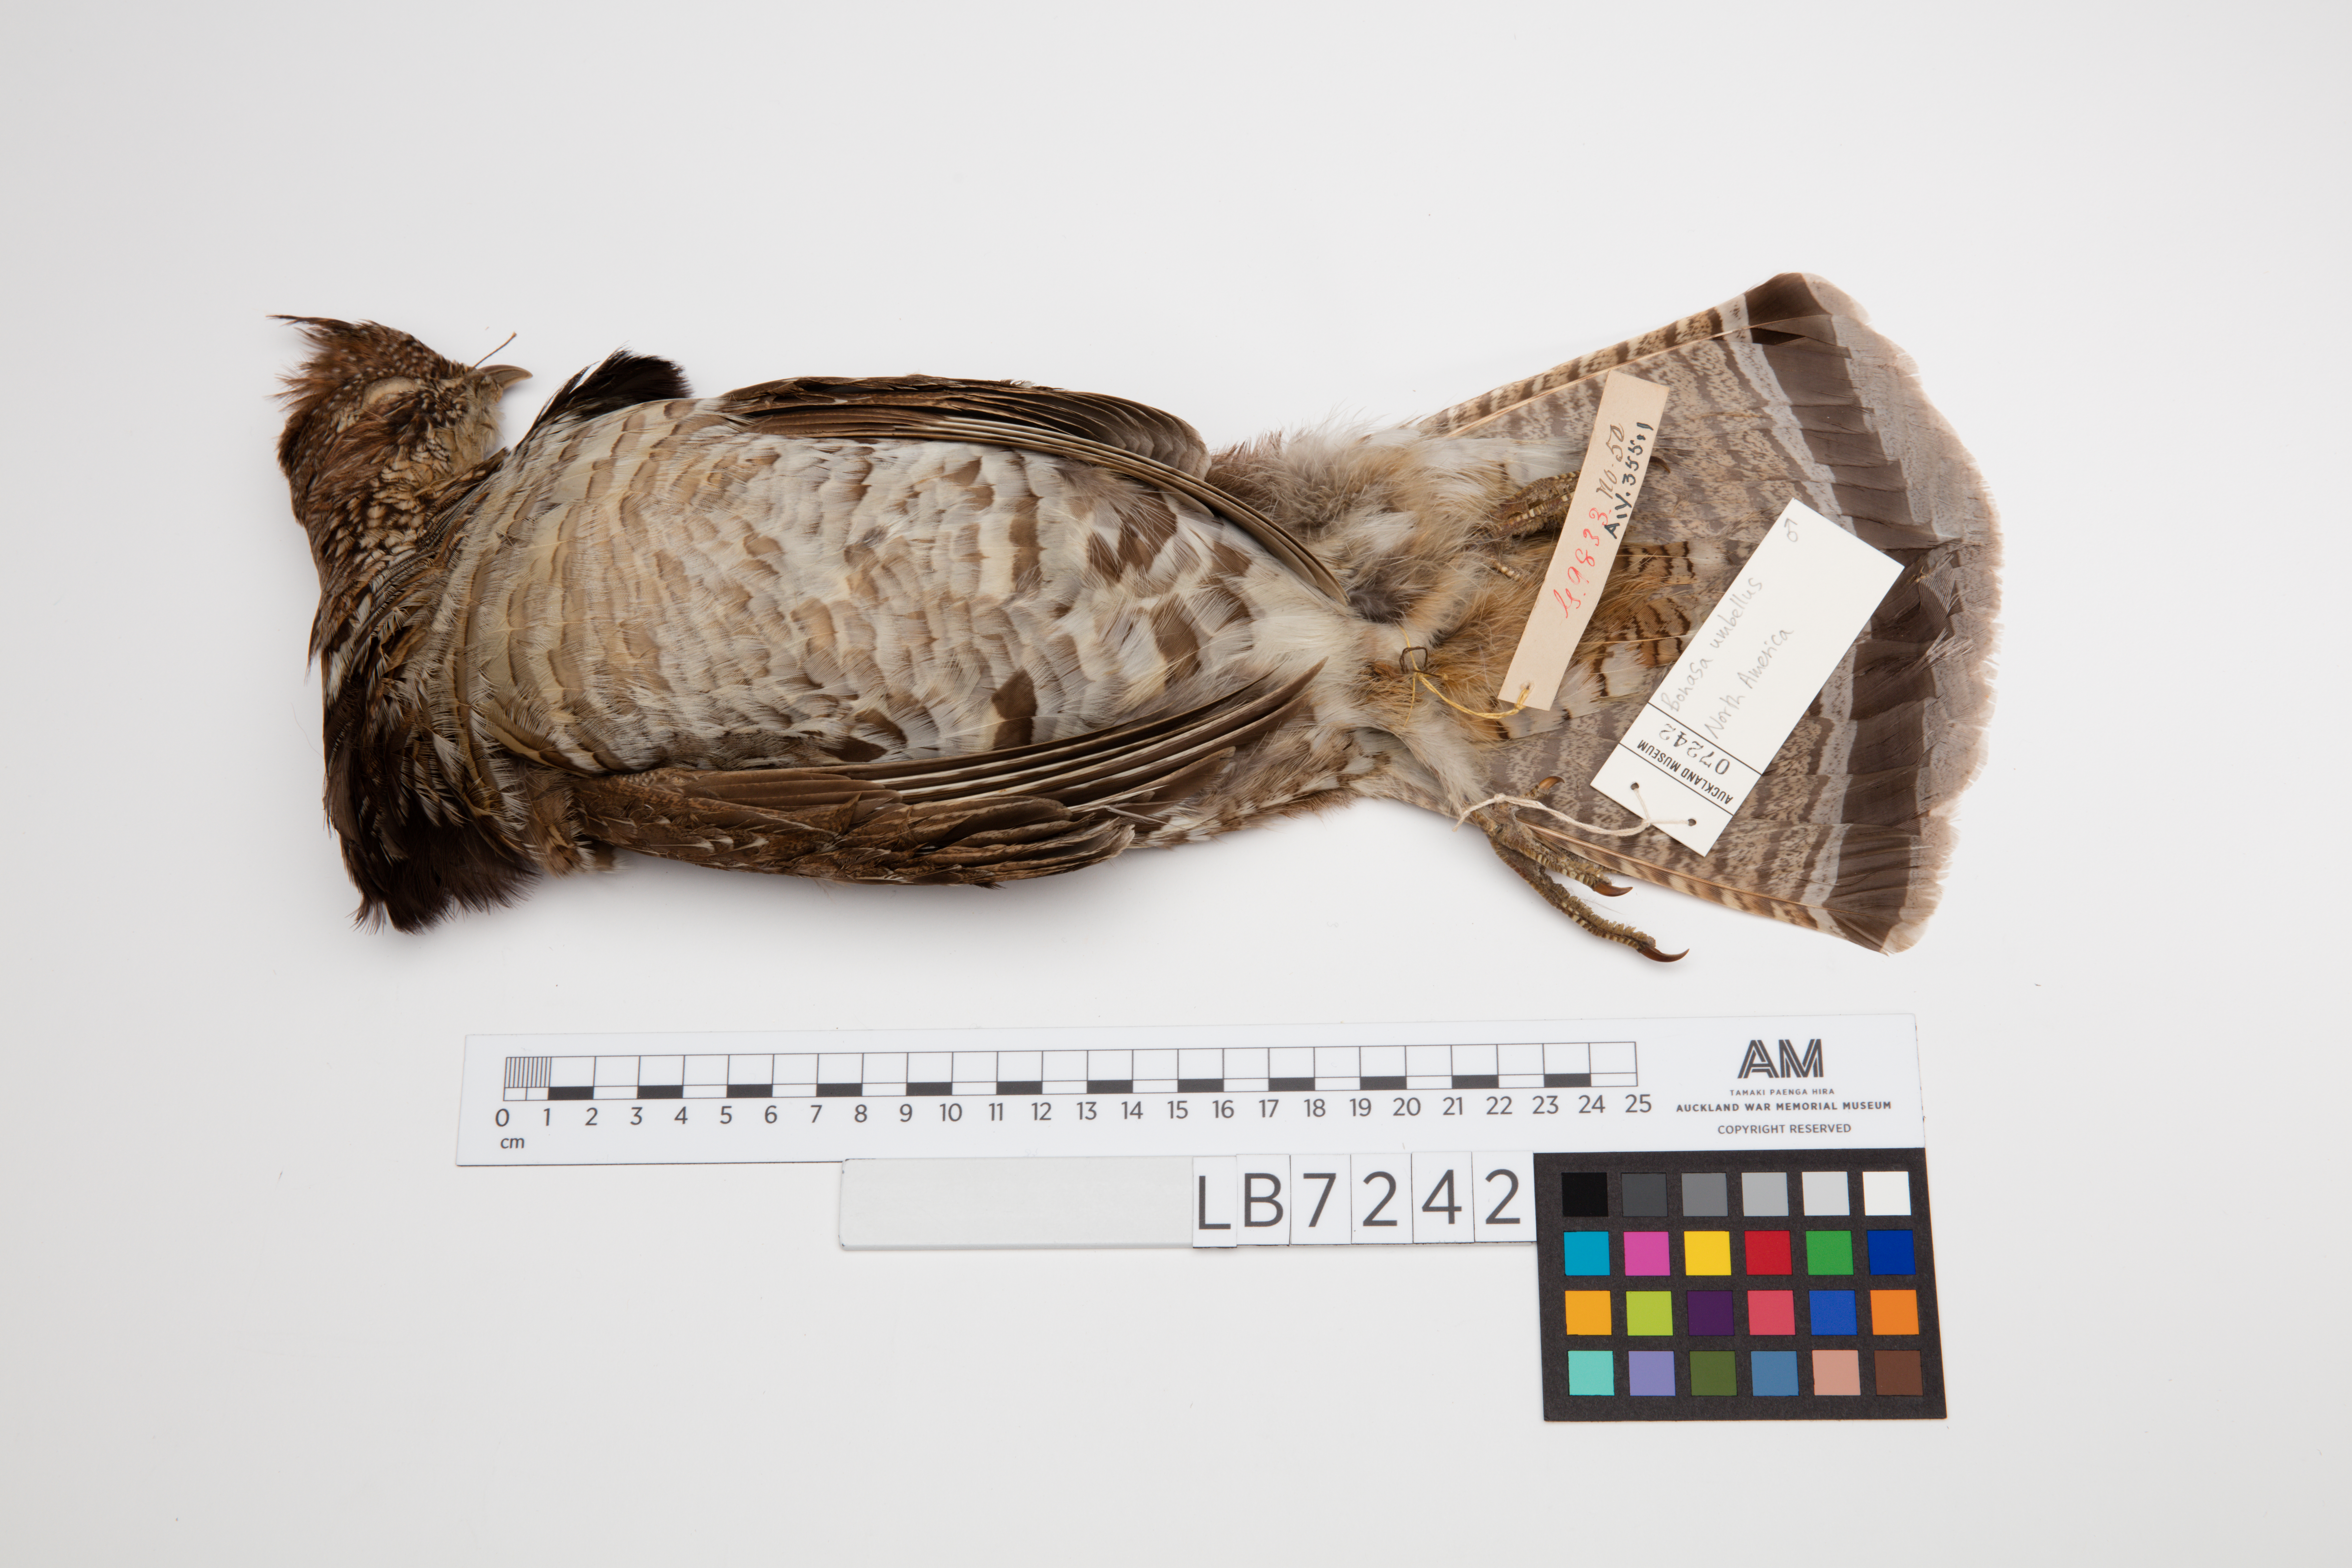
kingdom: Animalia
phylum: Chordata
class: Aves
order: Galliformes
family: Phasianidae
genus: Bonasa
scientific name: Bonasa umbellus
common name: Ruffed grouse
